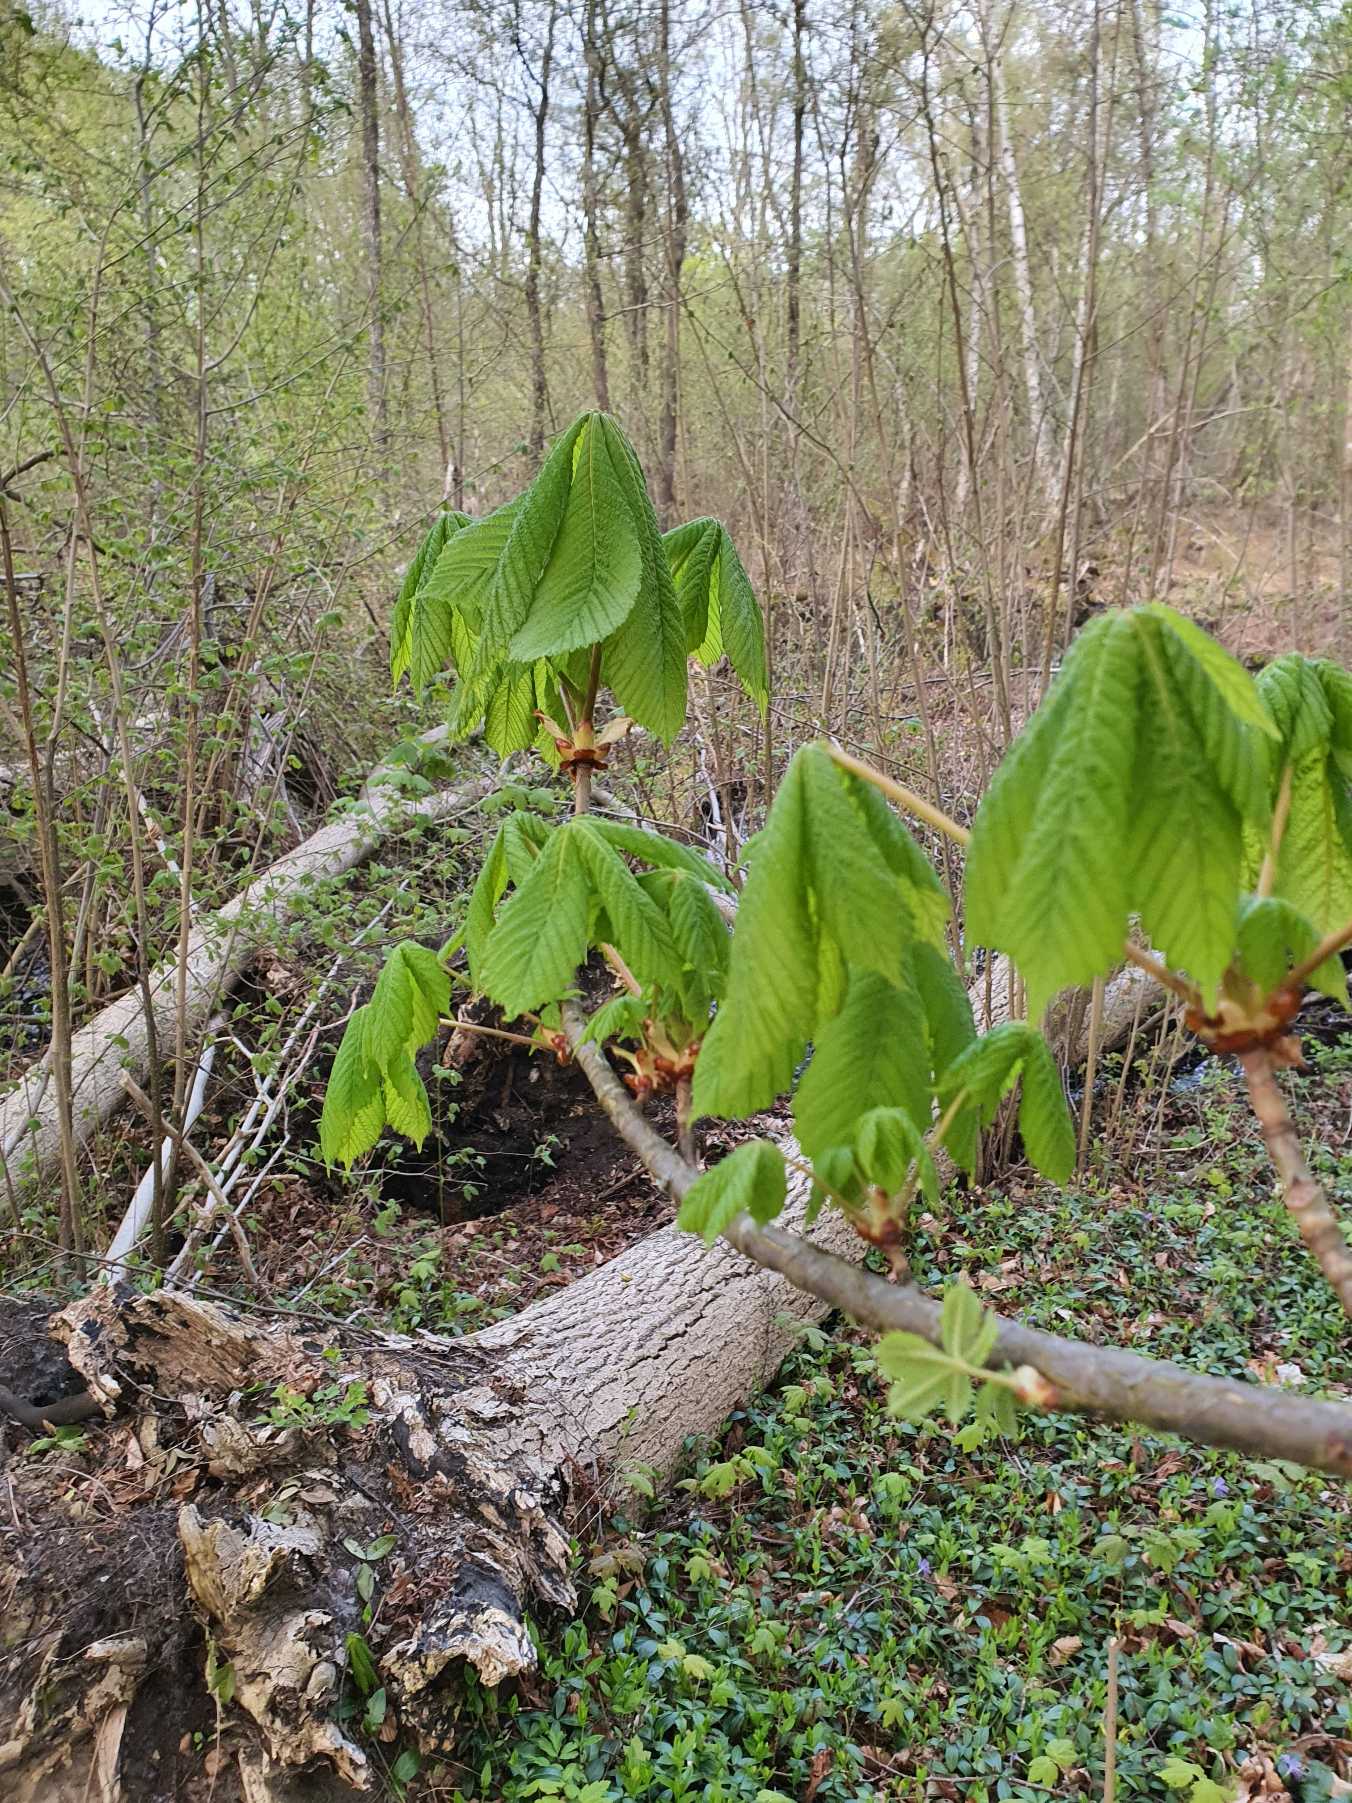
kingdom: Plantae
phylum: Tracheophyta
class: Magnoliopsida
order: Sapindales
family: Sapindaceae
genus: Aesculus
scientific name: Aesculus hippocastanum
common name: Hestekastanie
